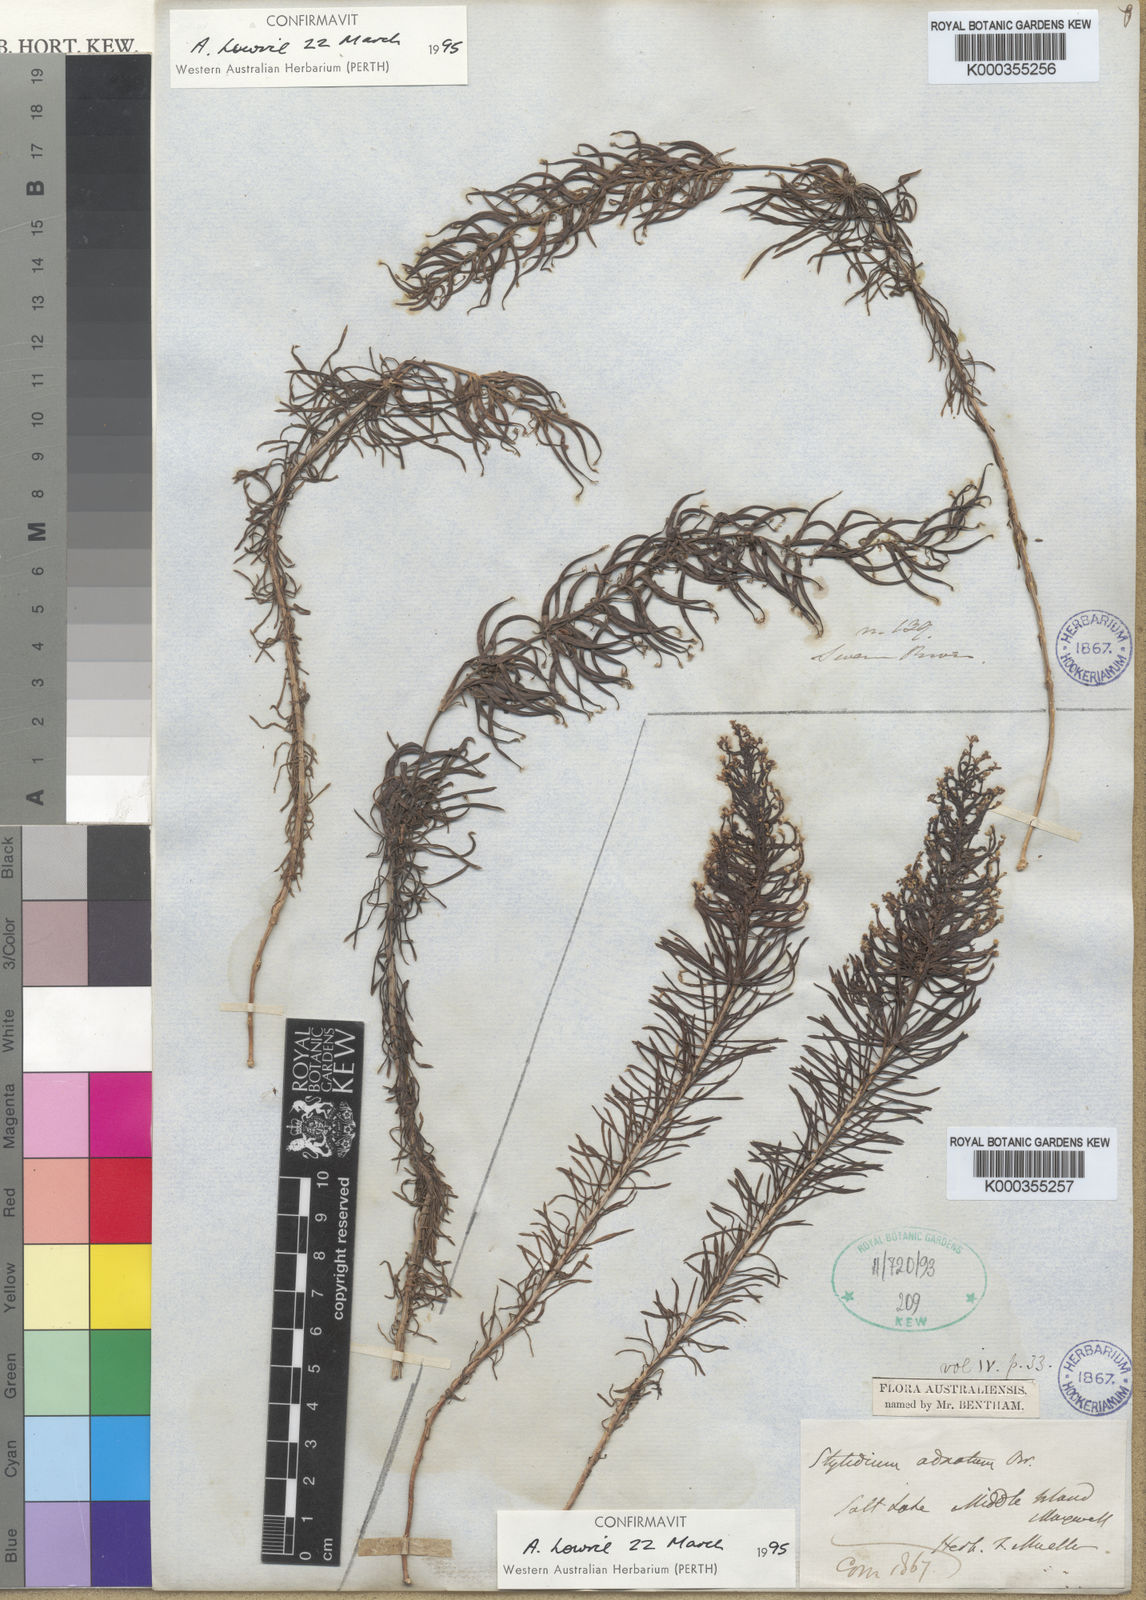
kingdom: Plantae
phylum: Tracheophyta
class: Magnoliopsida
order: Asterales
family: Stylidiaceae
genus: Stylidium
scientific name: Stylidium adnatum
